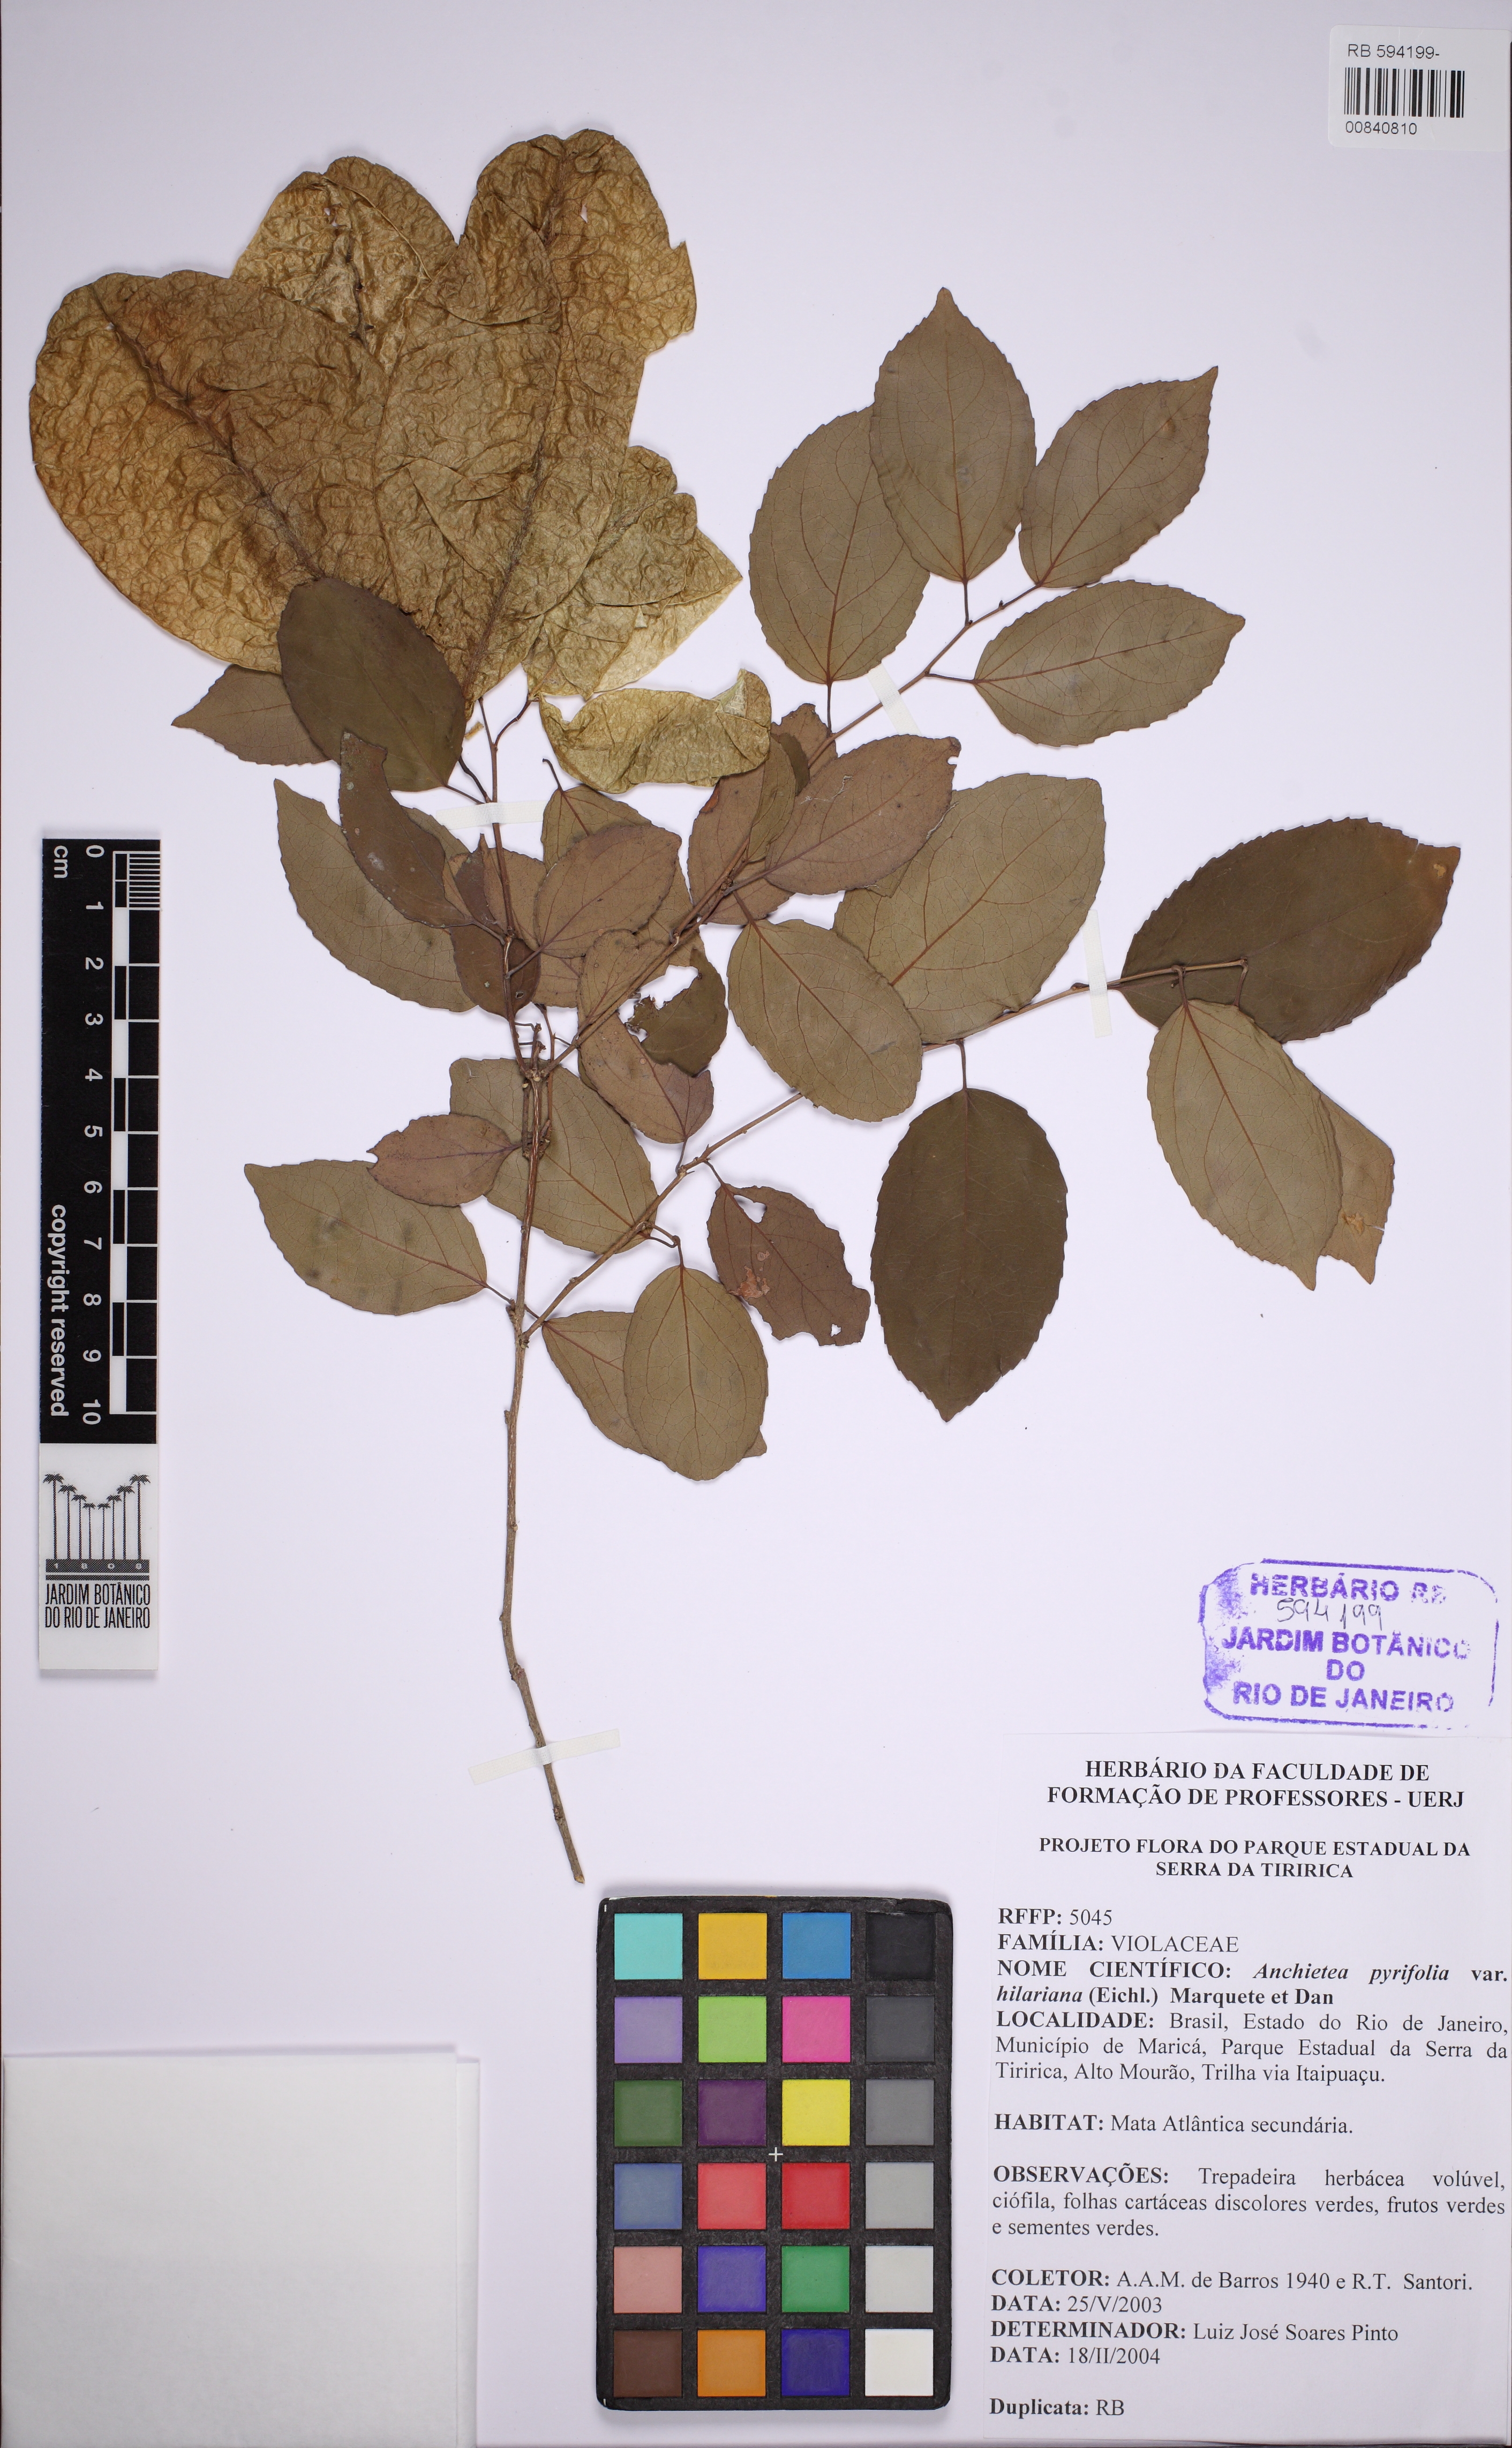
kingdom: Plantae
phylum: Tracheophyta
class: Magnoliopsida
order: Malpighiales
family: Violaceae
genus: Anchietea
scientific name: Anchietea pyrifolia
